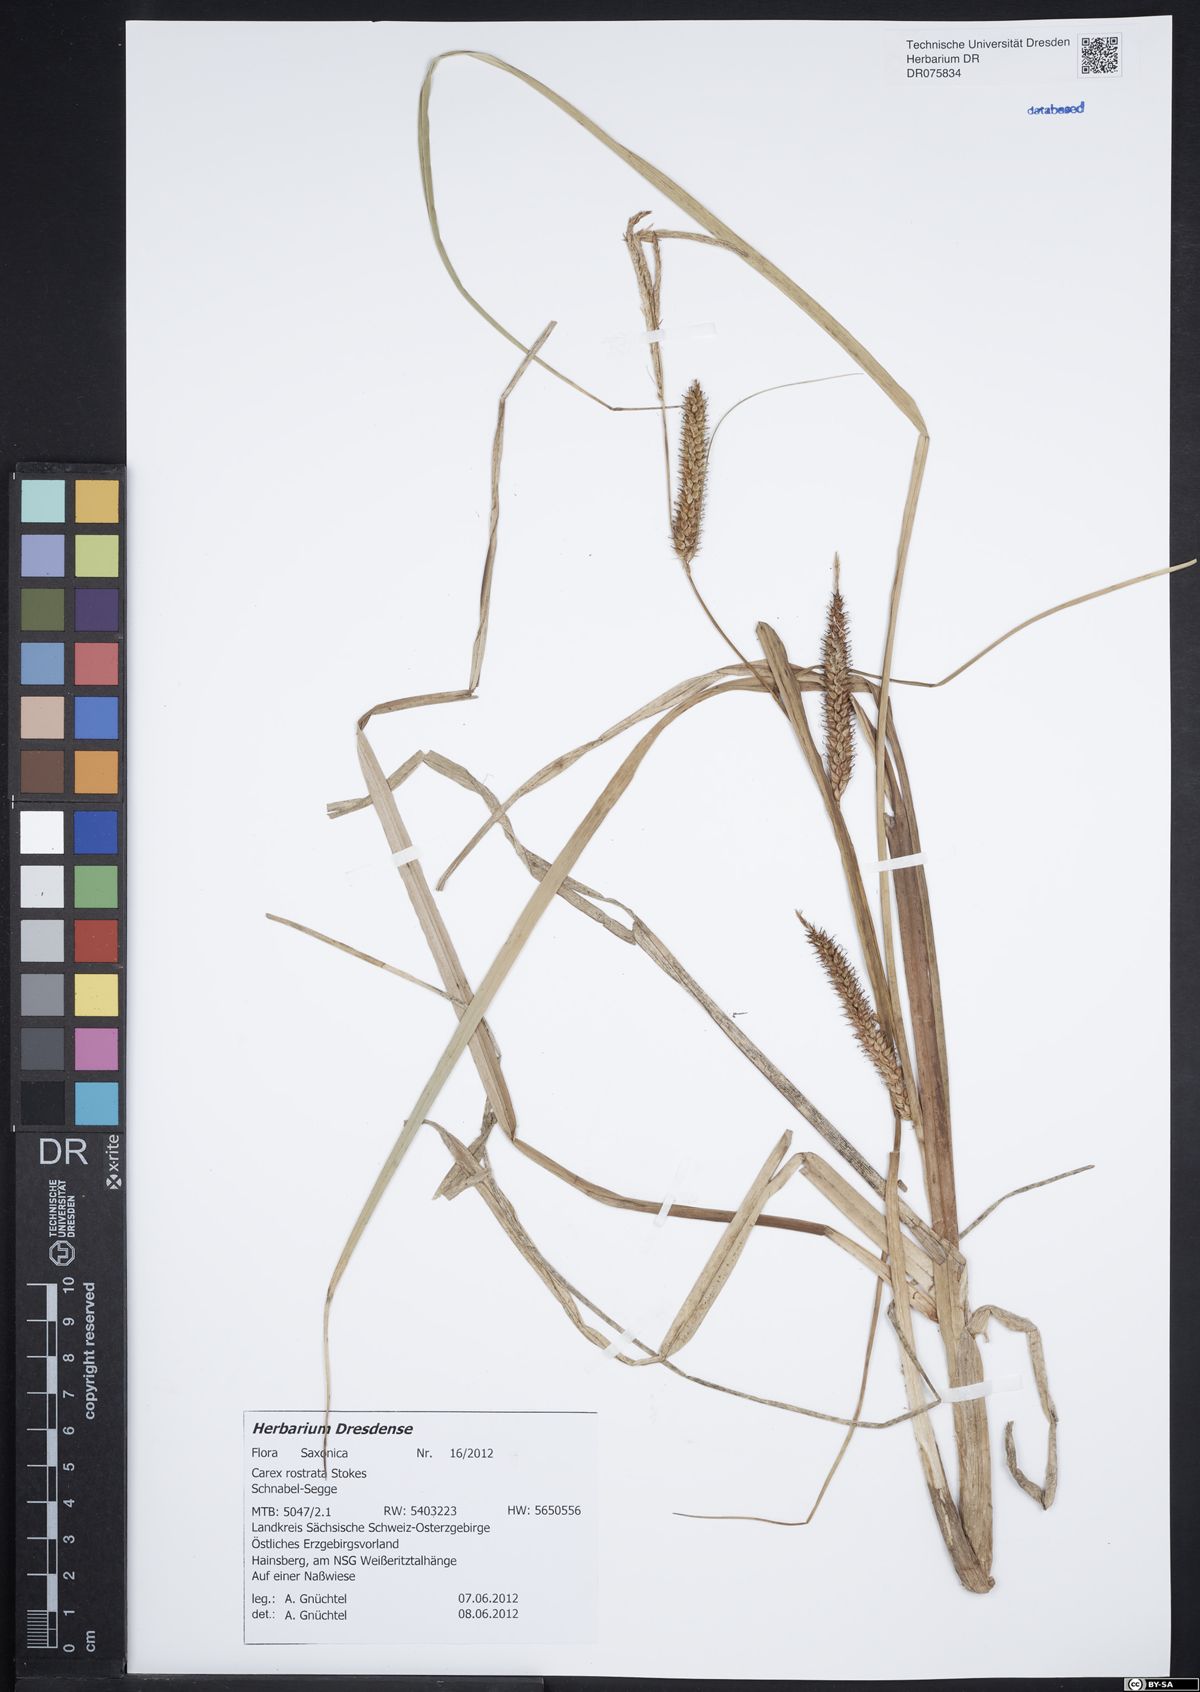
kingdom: Plantae
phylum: Tracheophyta
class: Liliopsida
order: Poales
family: Cyperaceae
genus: Carex
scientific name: Carex rostrata
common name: Bottle sedge
